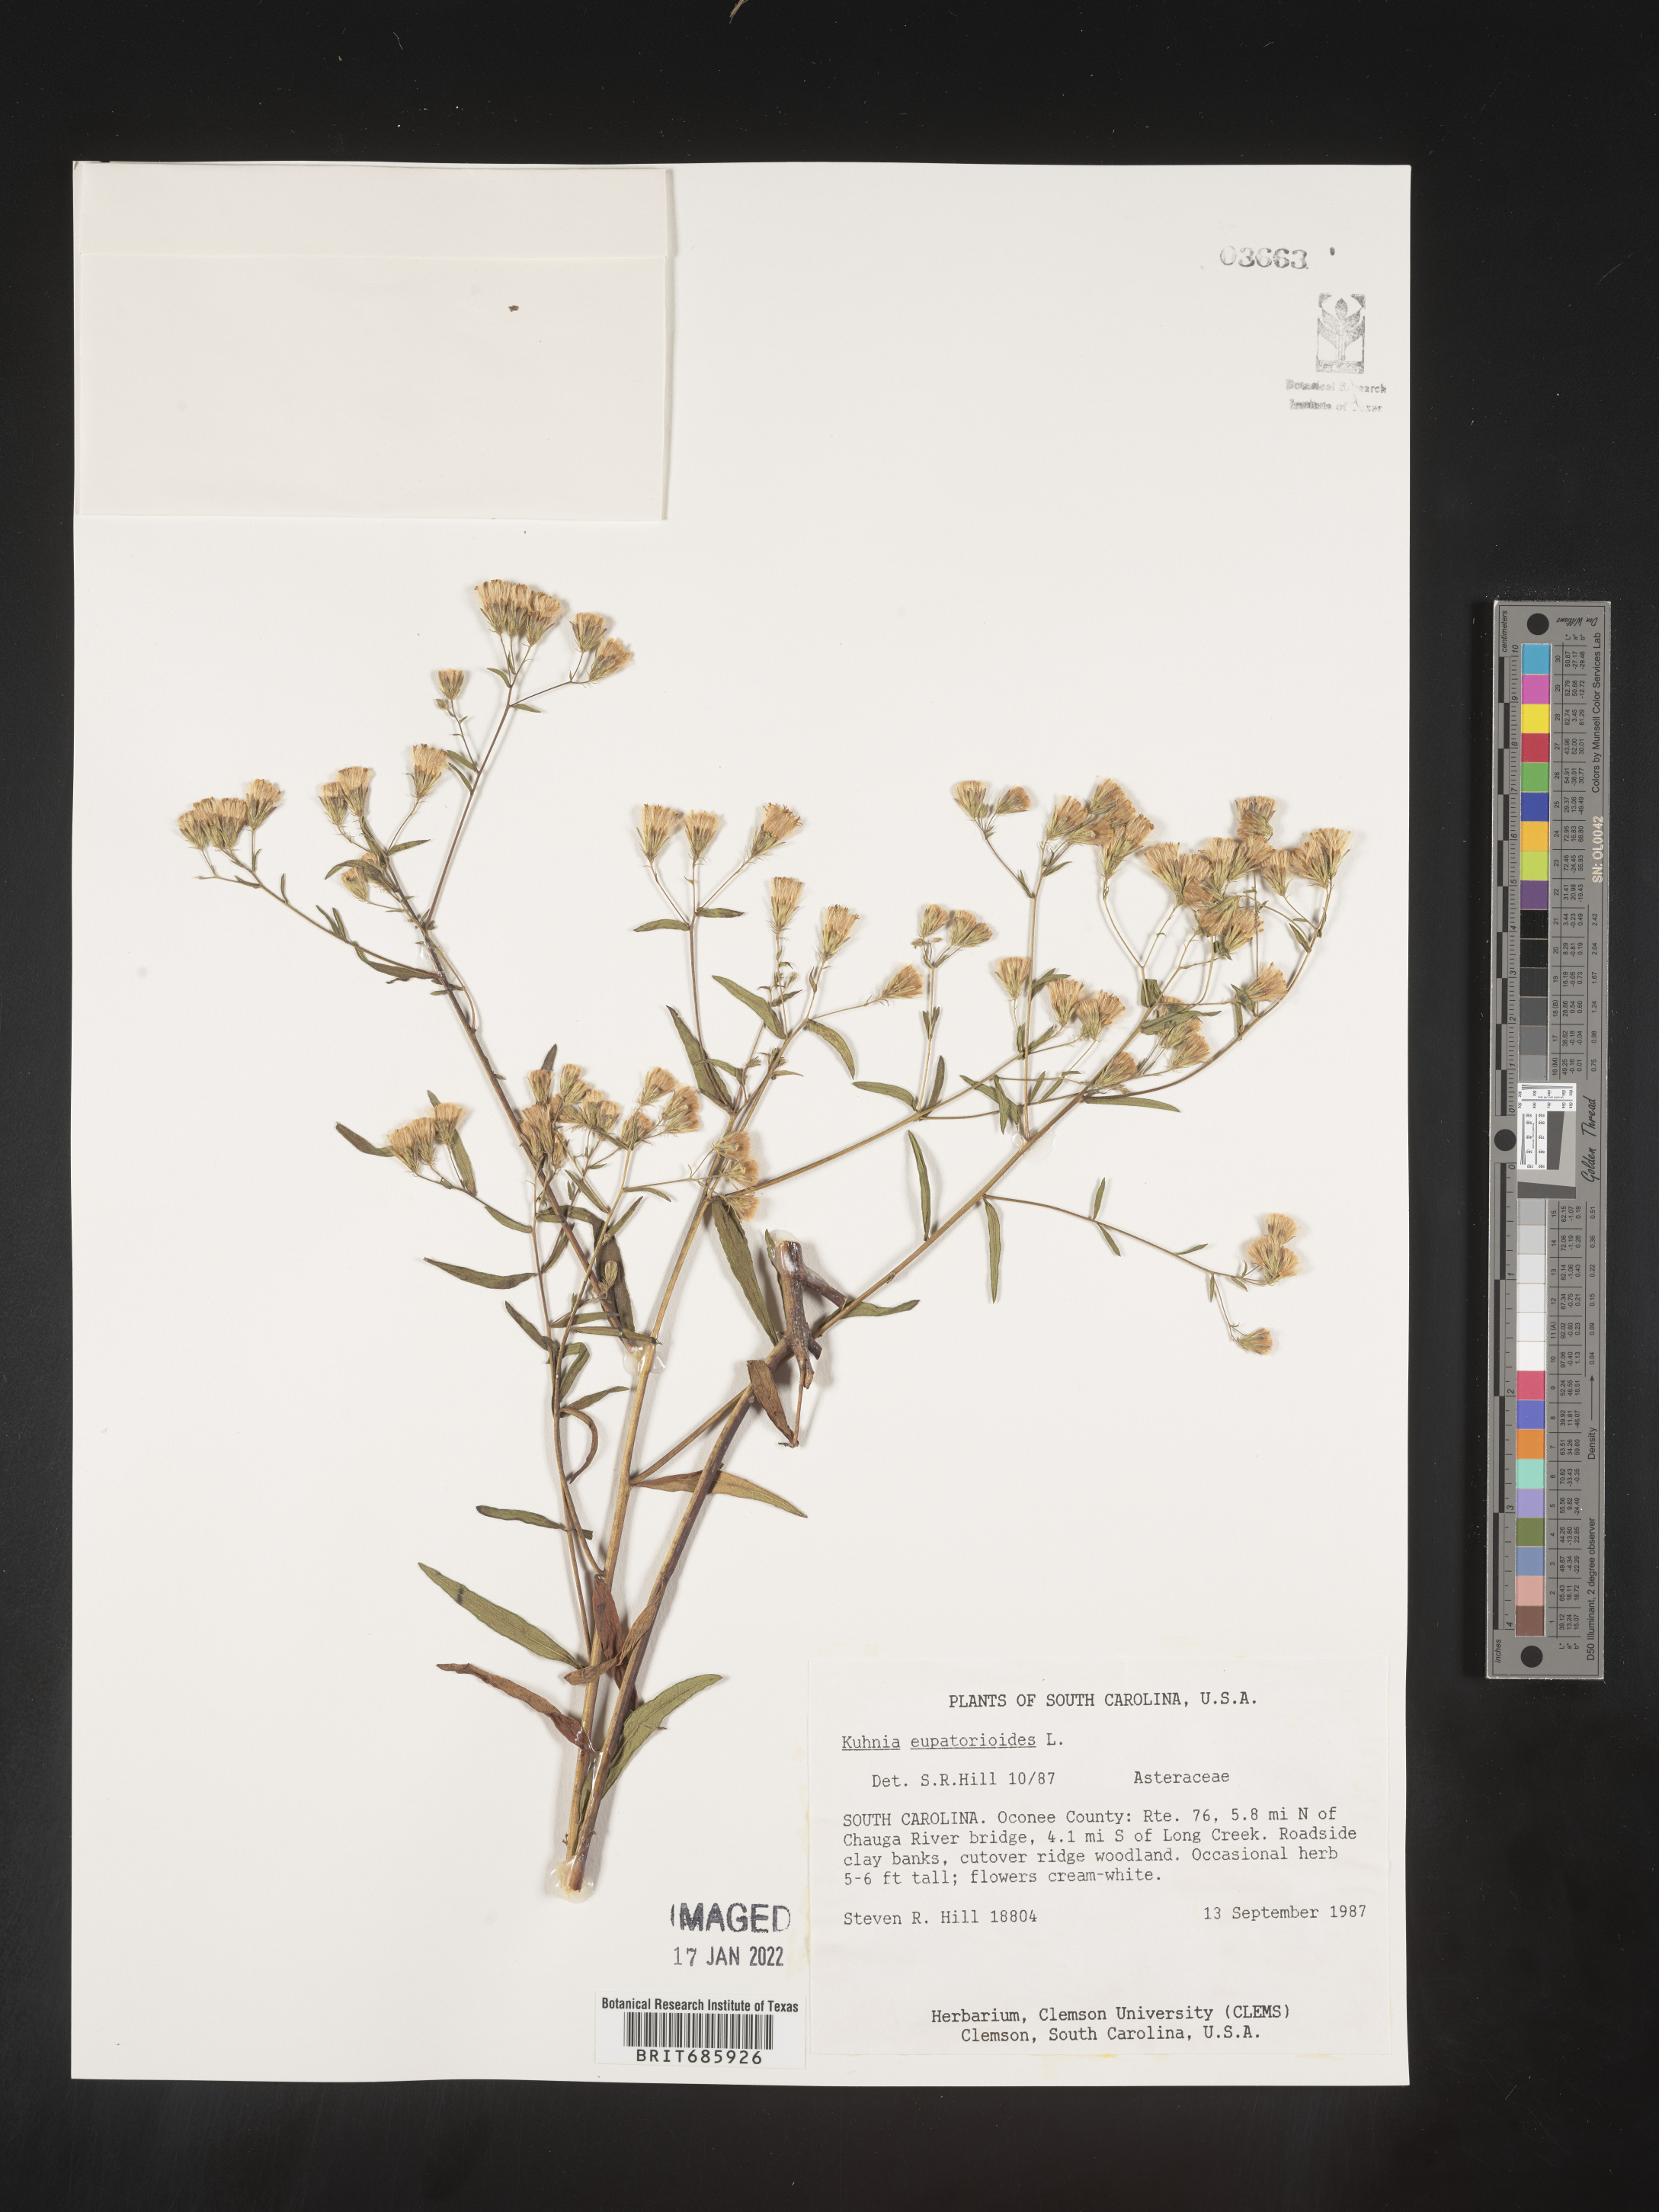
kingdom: Plantae
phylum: Tracheophyta
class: Magnoliopsida
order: Asterales
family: Asteraceae
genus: Brickellia
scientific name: Brickellia eupatorioides
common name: False boneset
